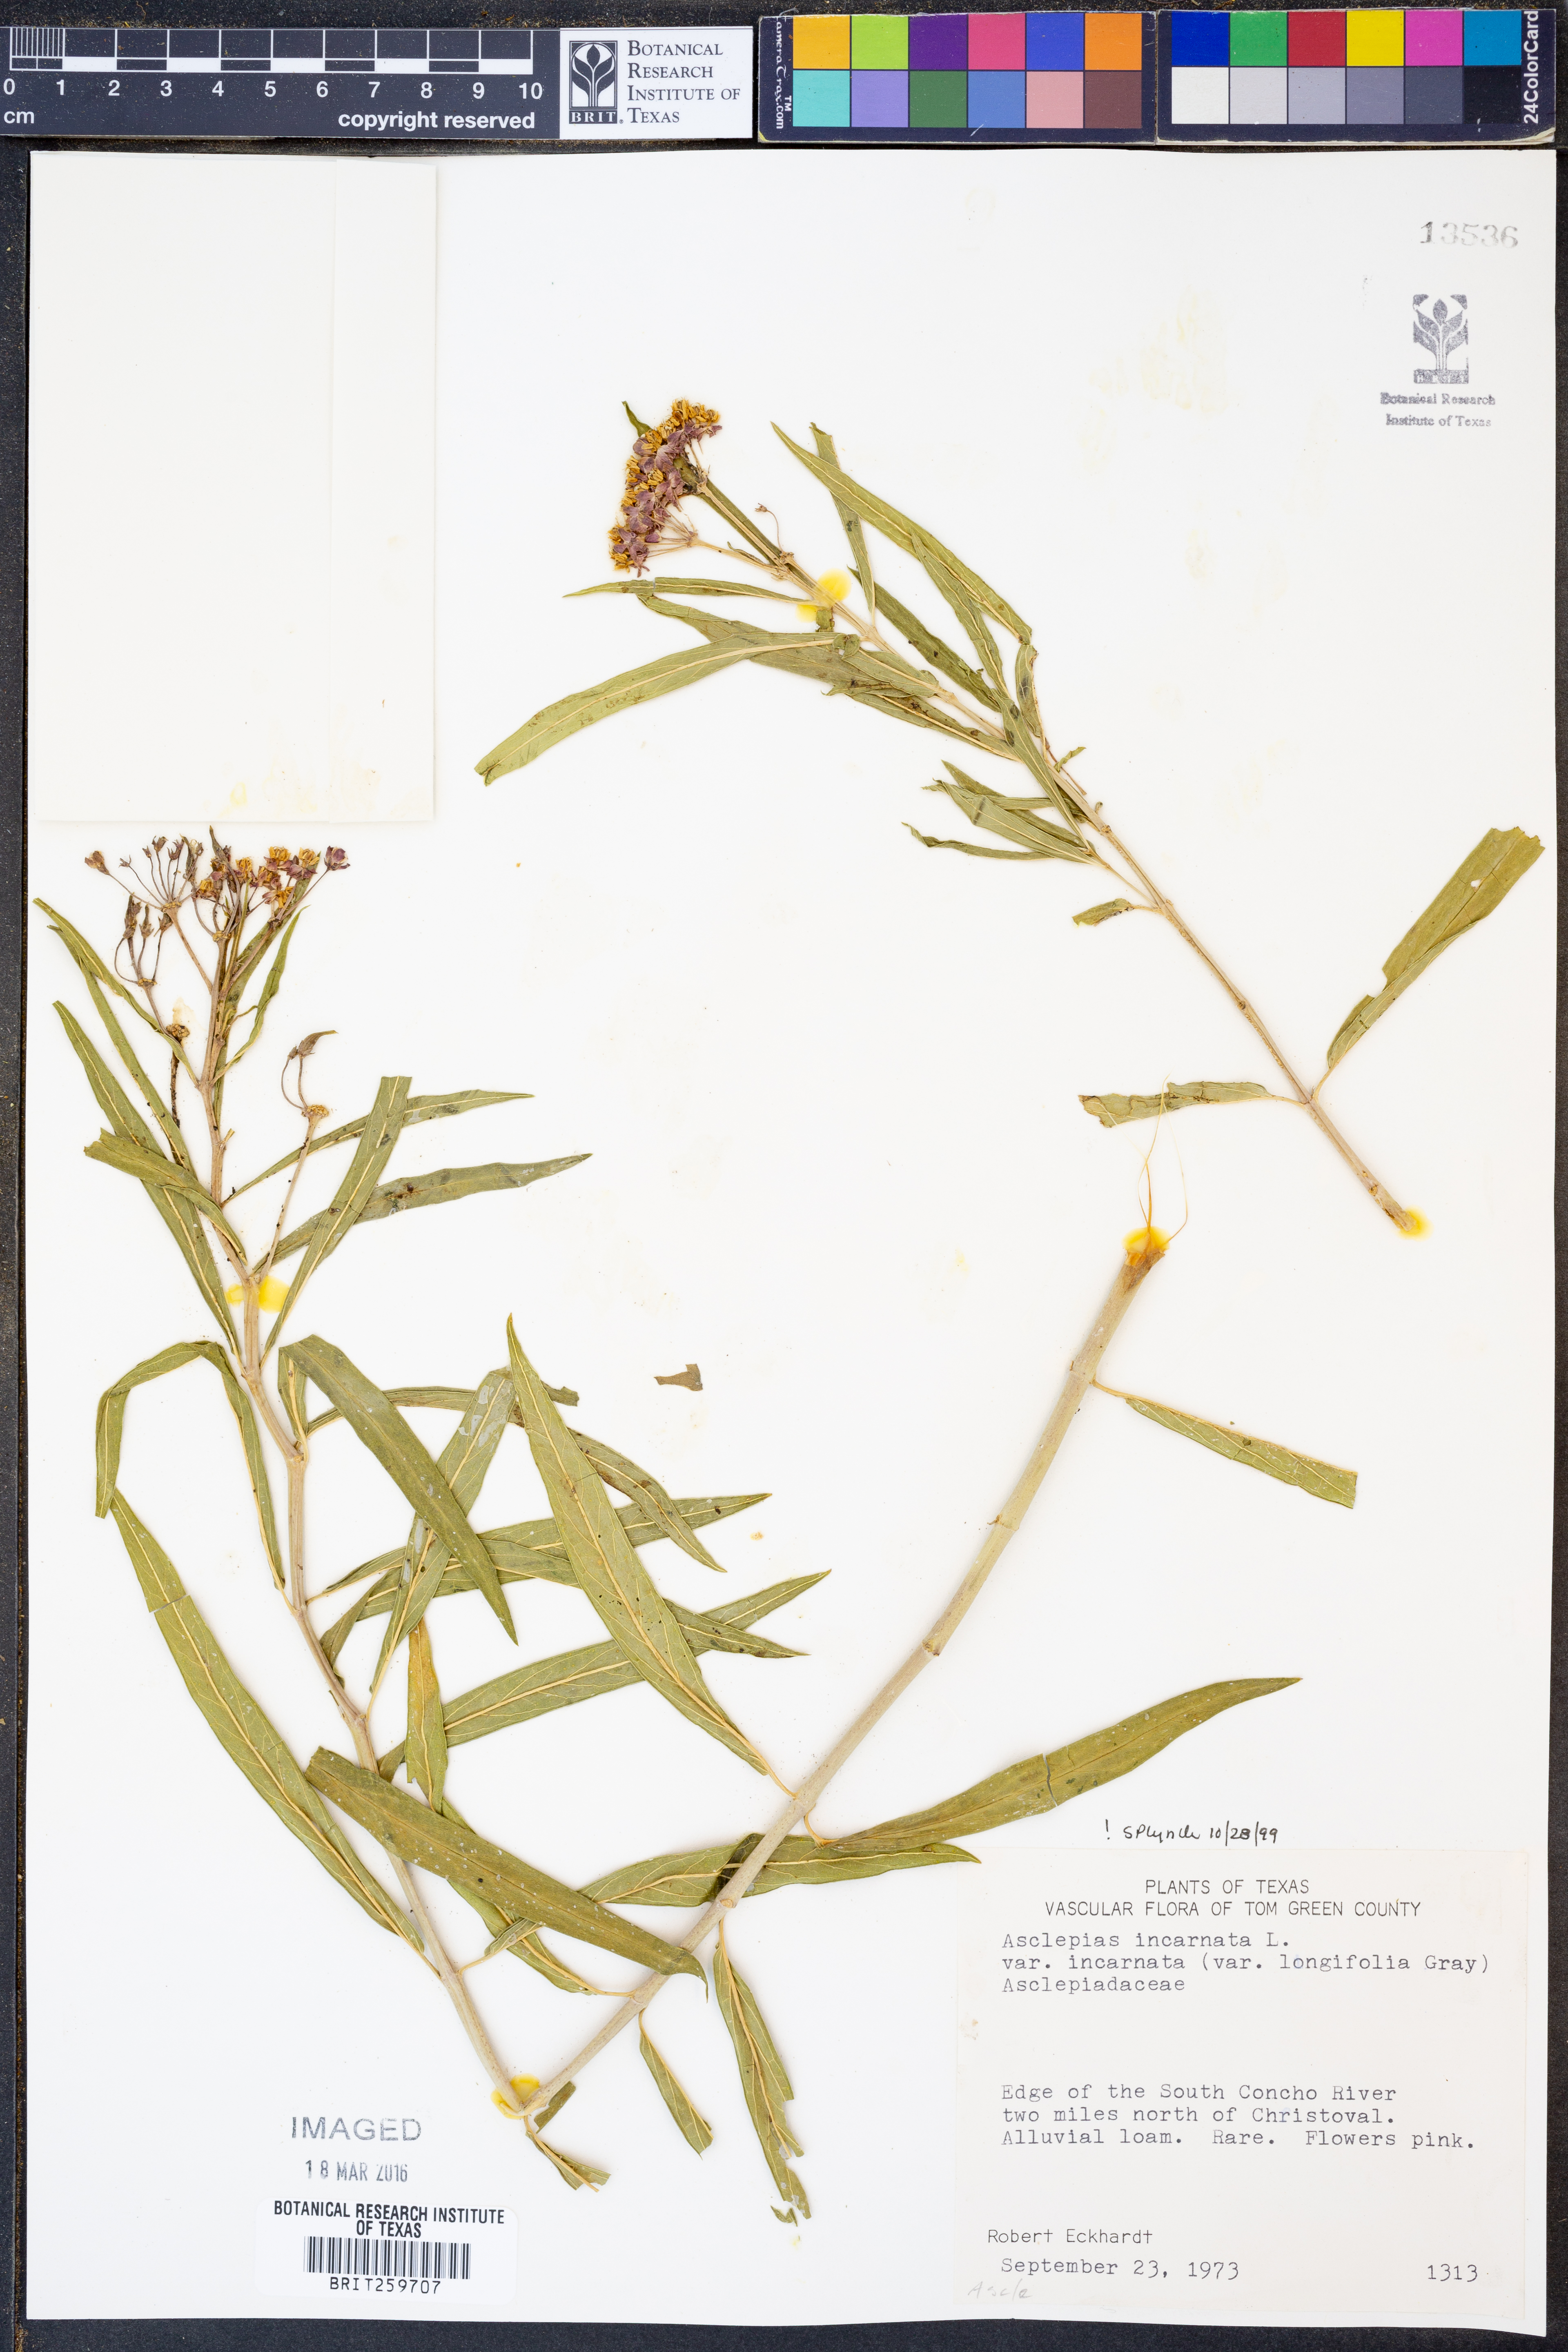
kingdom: Plantae
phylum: Tracheophyta
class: Magnoliopsida
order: Gentianales
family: Apocynaceae
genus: Asclepias
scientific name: Asclepias incarnata
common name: Swamp milkweed
